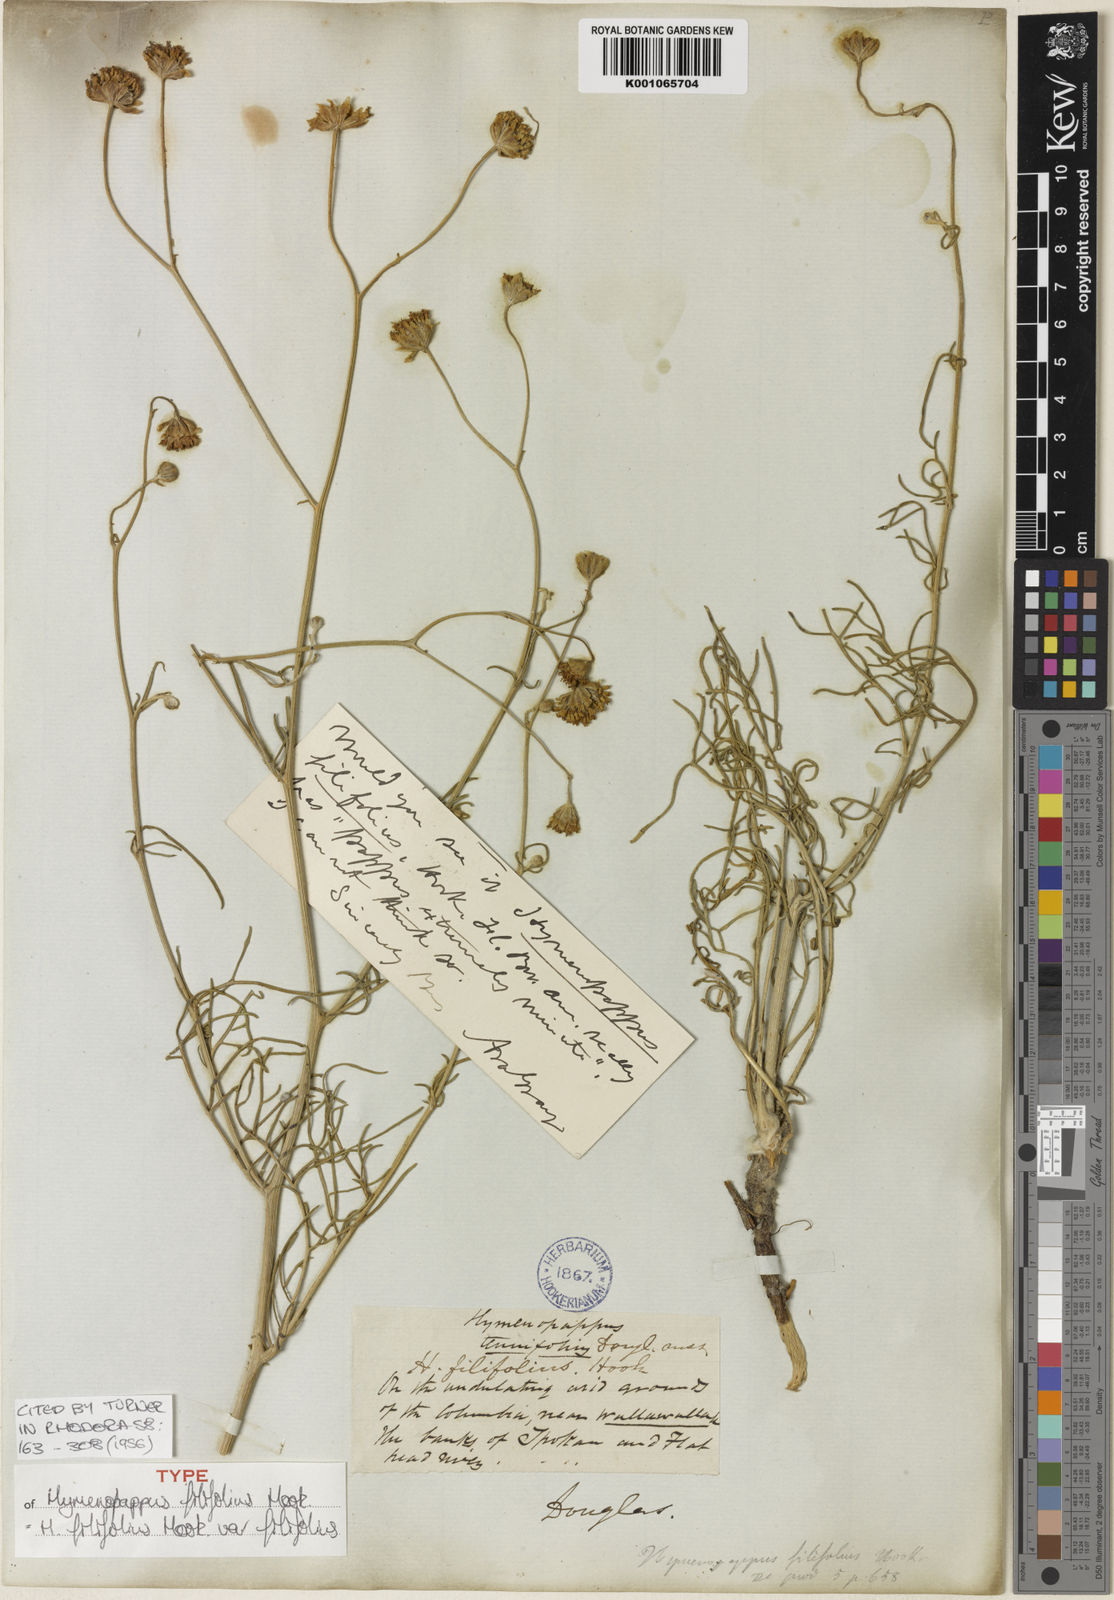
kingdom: Plantae
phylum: Tracheophyta
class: Magnoliopsida
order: Asterales
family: Asteraceae
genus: Hymenopappus
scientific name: Hymenopappus filifolius
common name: Columbia cutleaf
